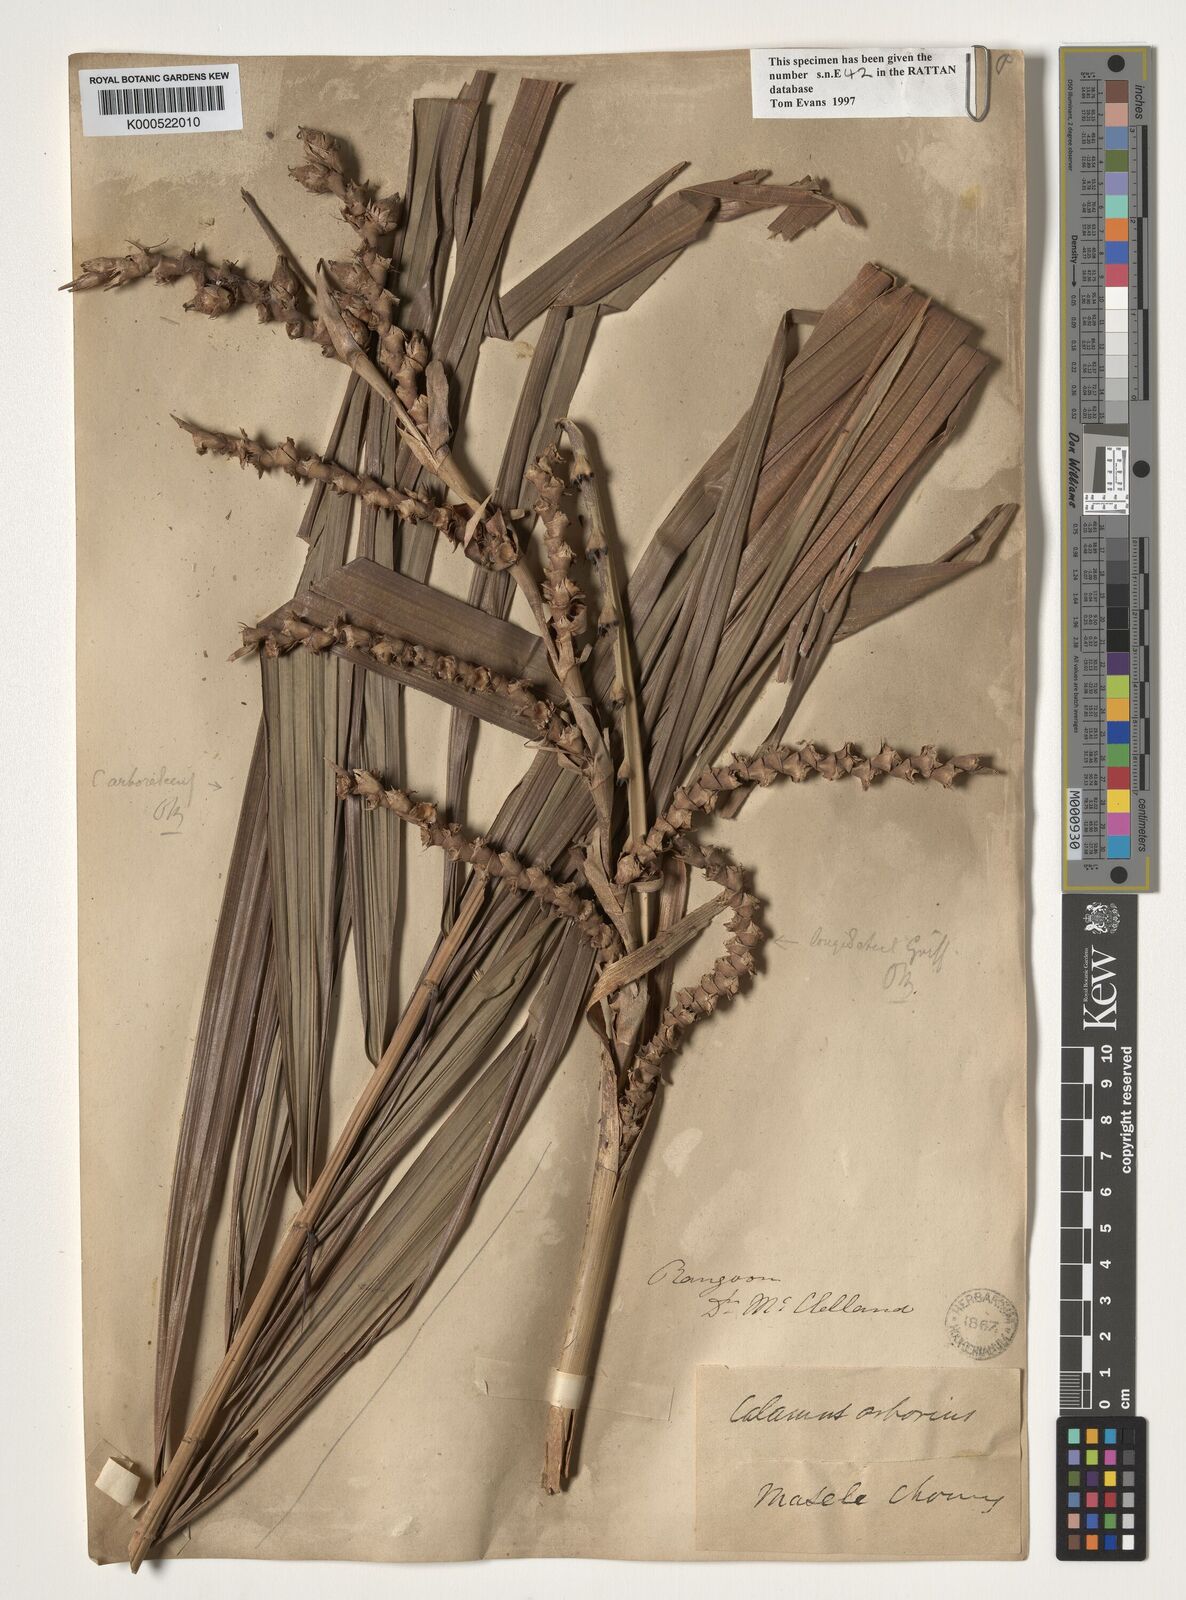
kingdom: Plantae
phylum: Tracheophyta
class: Liliopsida
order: Arecales
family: Arecaceae
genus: Calamus
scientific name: Calamus longisetus
